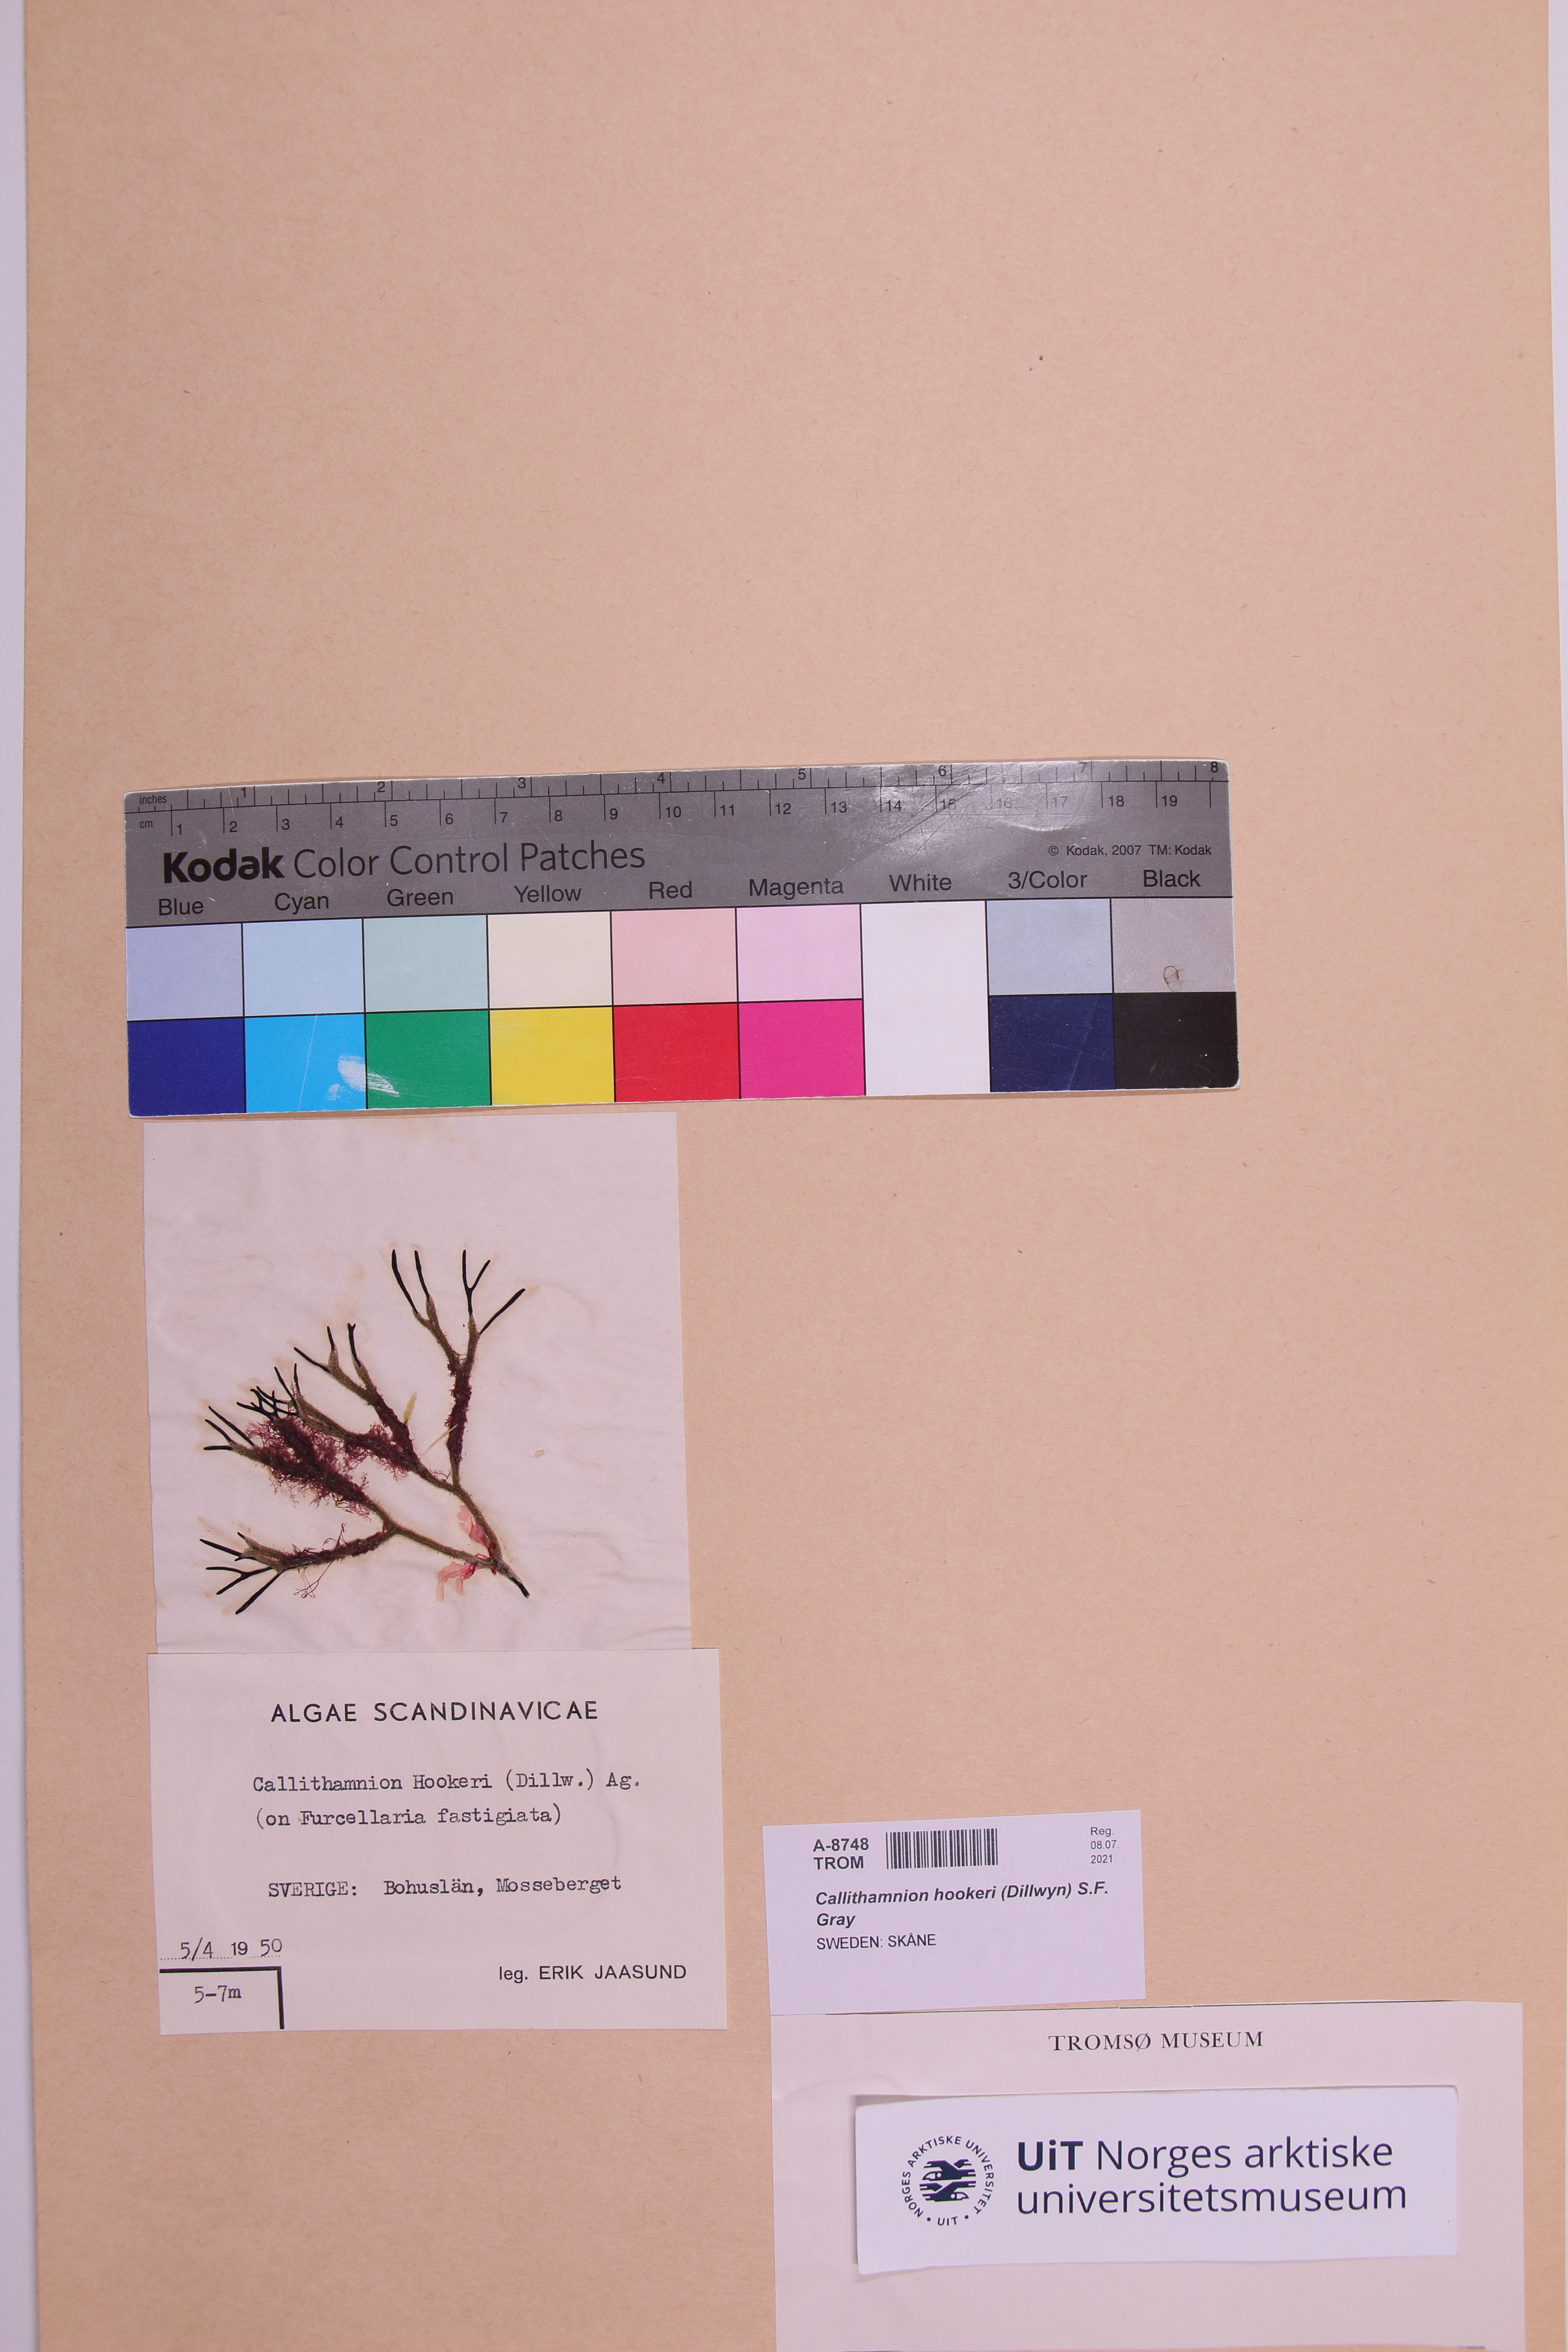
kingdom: Plantae
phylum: Rhodophyta
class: Florideophyceae
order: Ceramiales
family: Callithamniaceae
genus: Gaillona
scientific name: Gaillona hookeri
